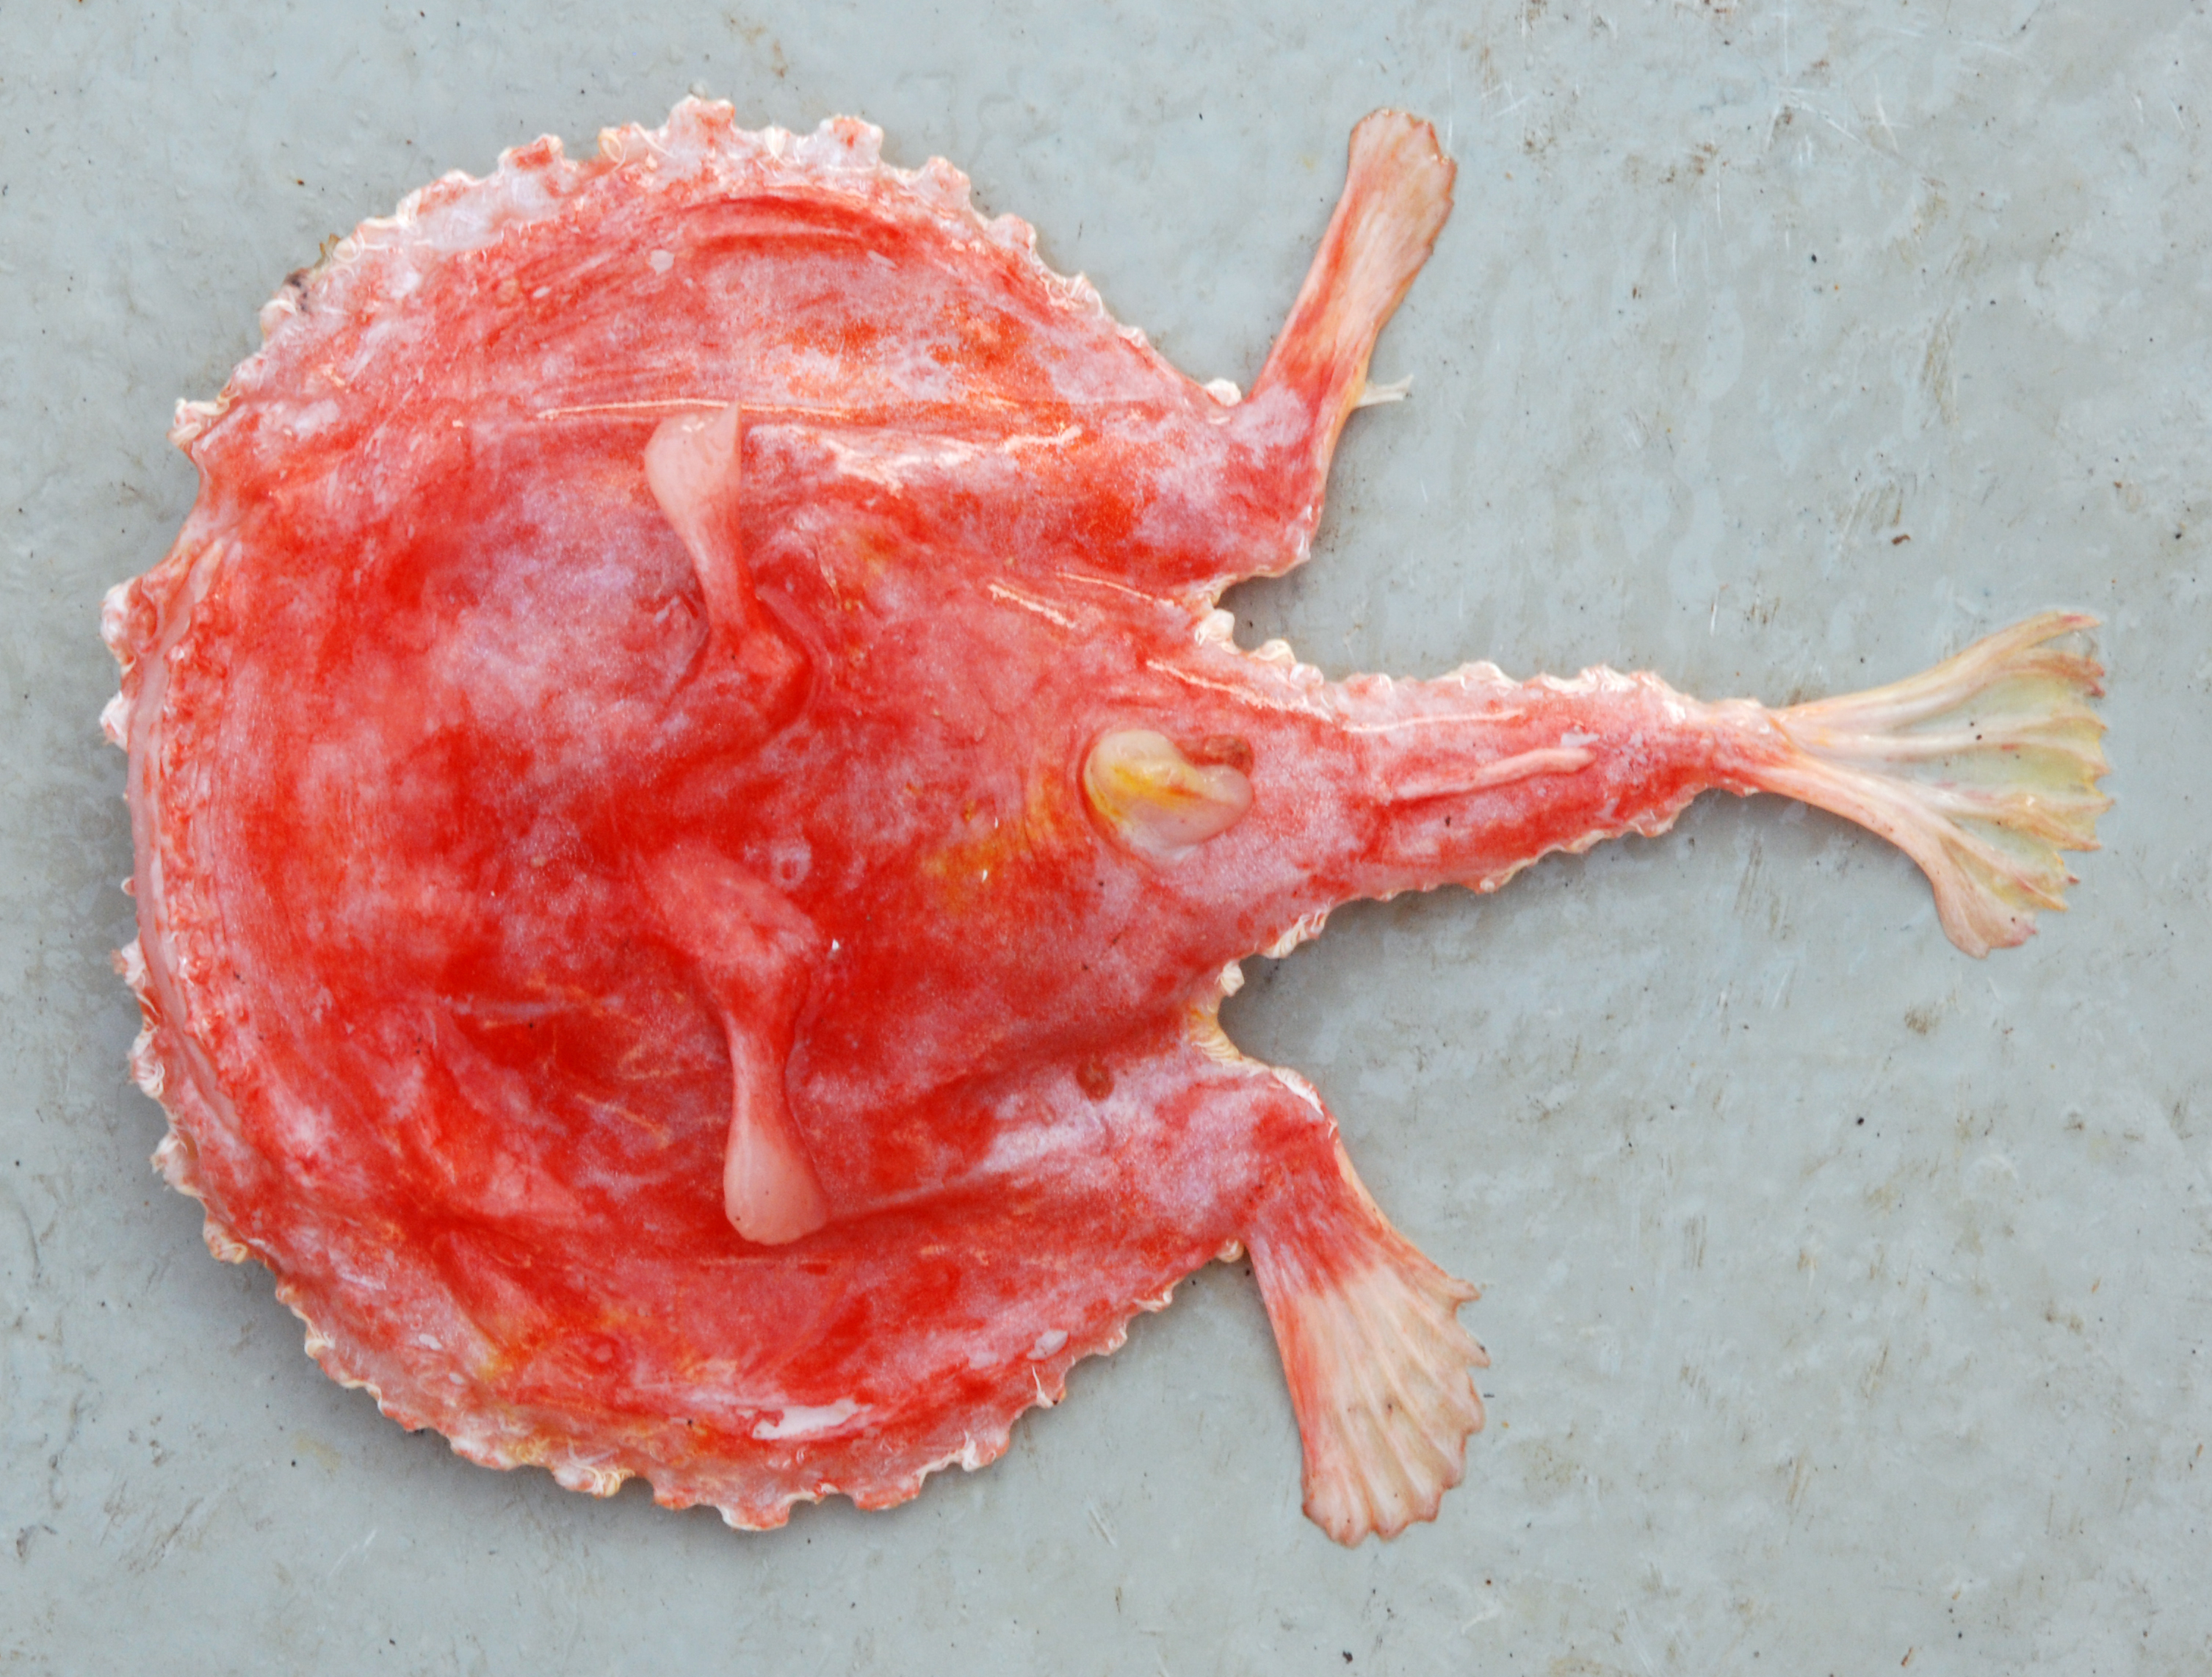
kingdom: Animalia
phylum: Chordata
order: Lophiiformes
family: Ogcocephalidae
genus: Halieutaea
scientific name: Halieutaea
